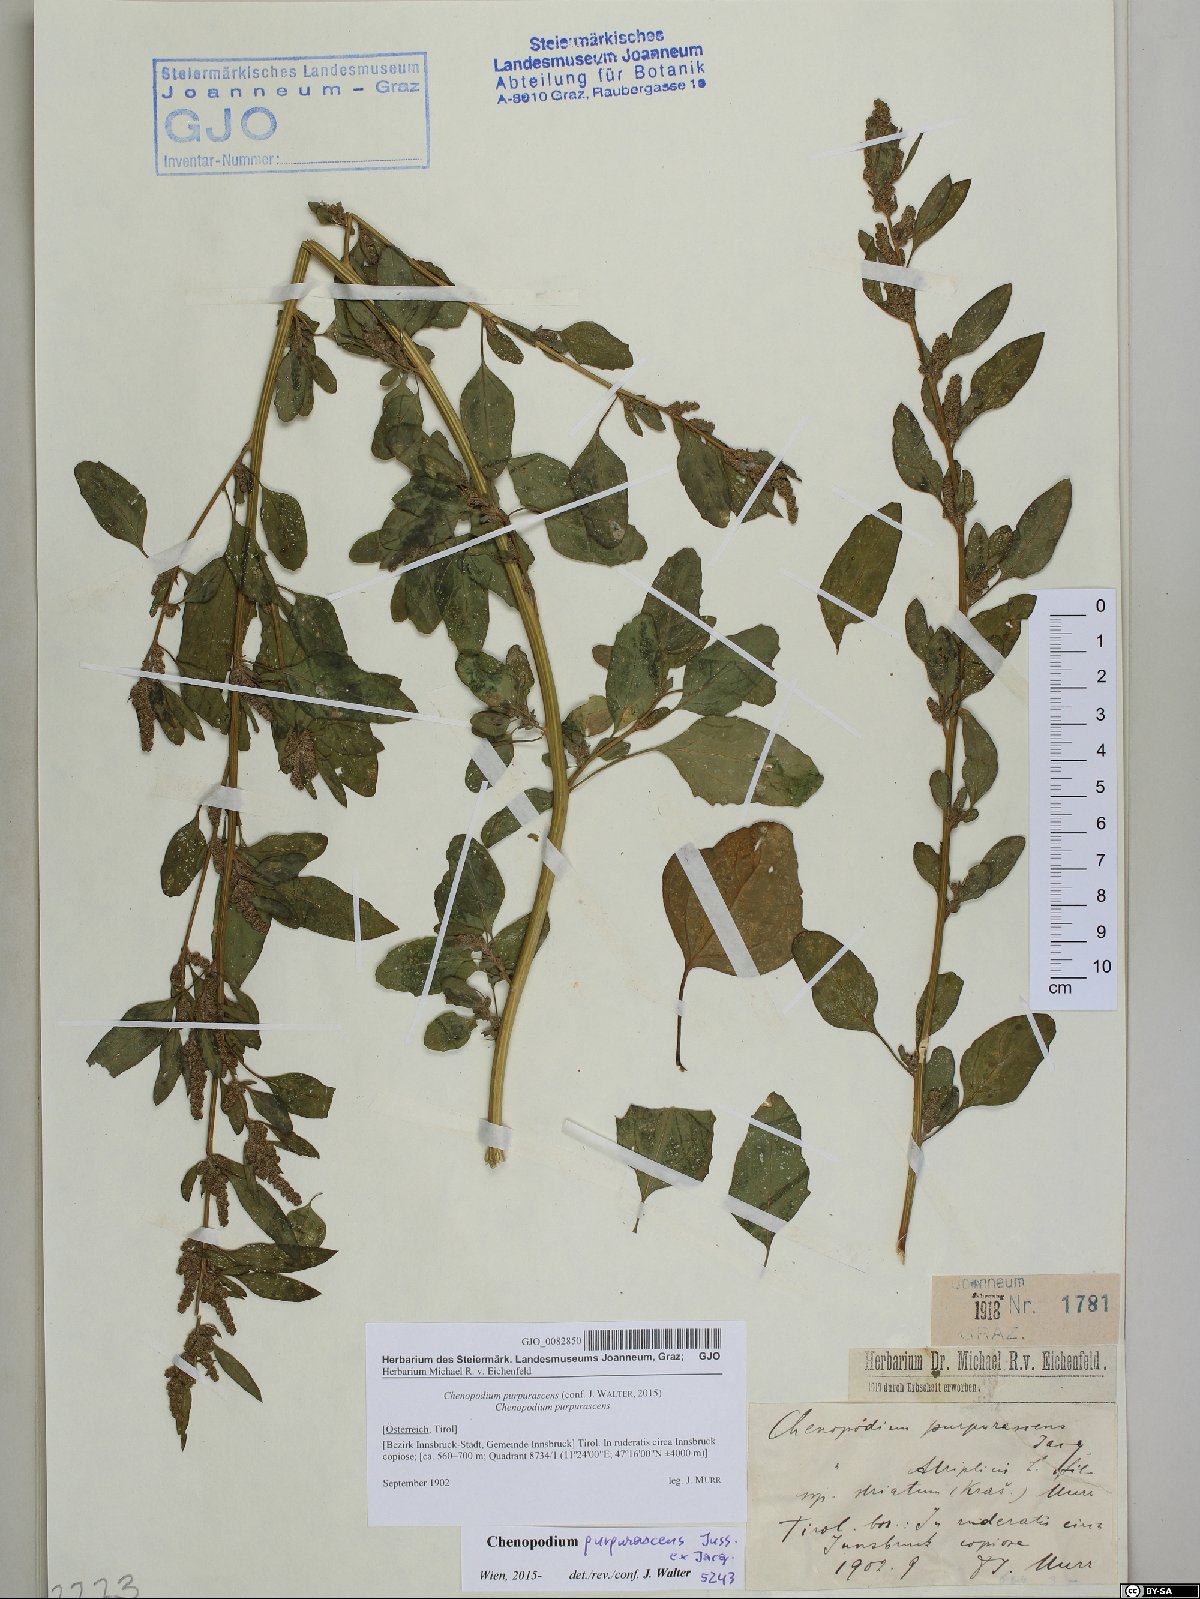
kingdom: Plantae
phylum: Tracheophyta
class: Magnoliopsida
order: Caryophyllales
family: Amaranthaceae
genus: Chenopodium
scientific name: Chenopodium quinoa
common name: Quinoa
